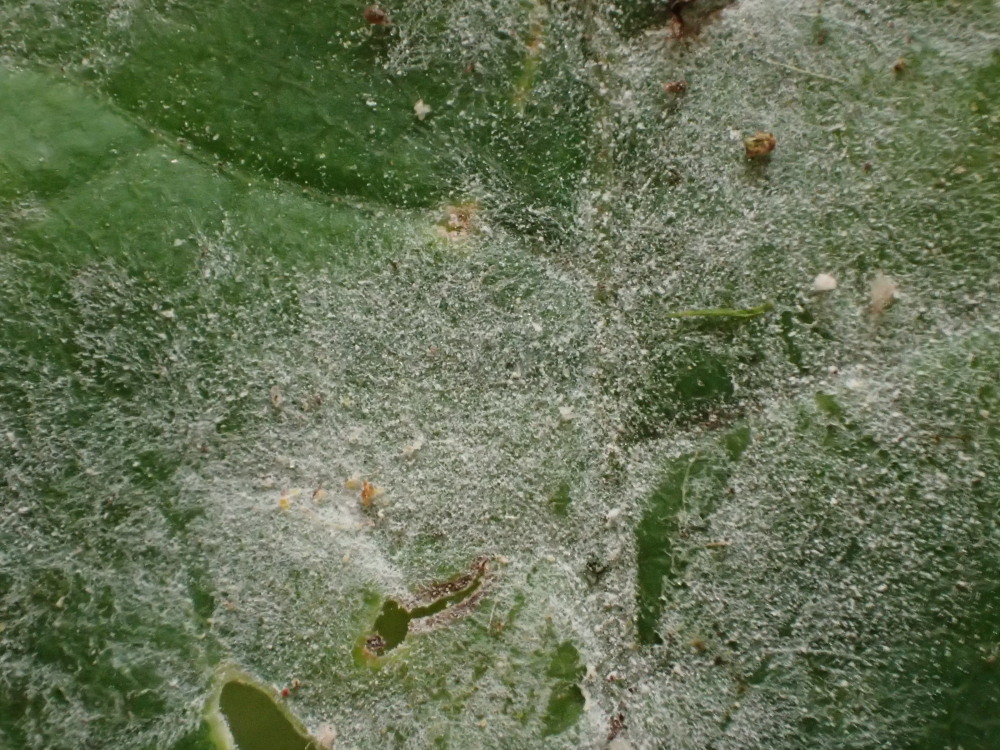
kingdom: Fungi
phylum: Ascomycota
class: Leotiomycetes
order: Helotiales
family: Erysiphaceae
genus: Sawadaea
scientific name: Sawadaea bicornis
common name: Maple mildew
